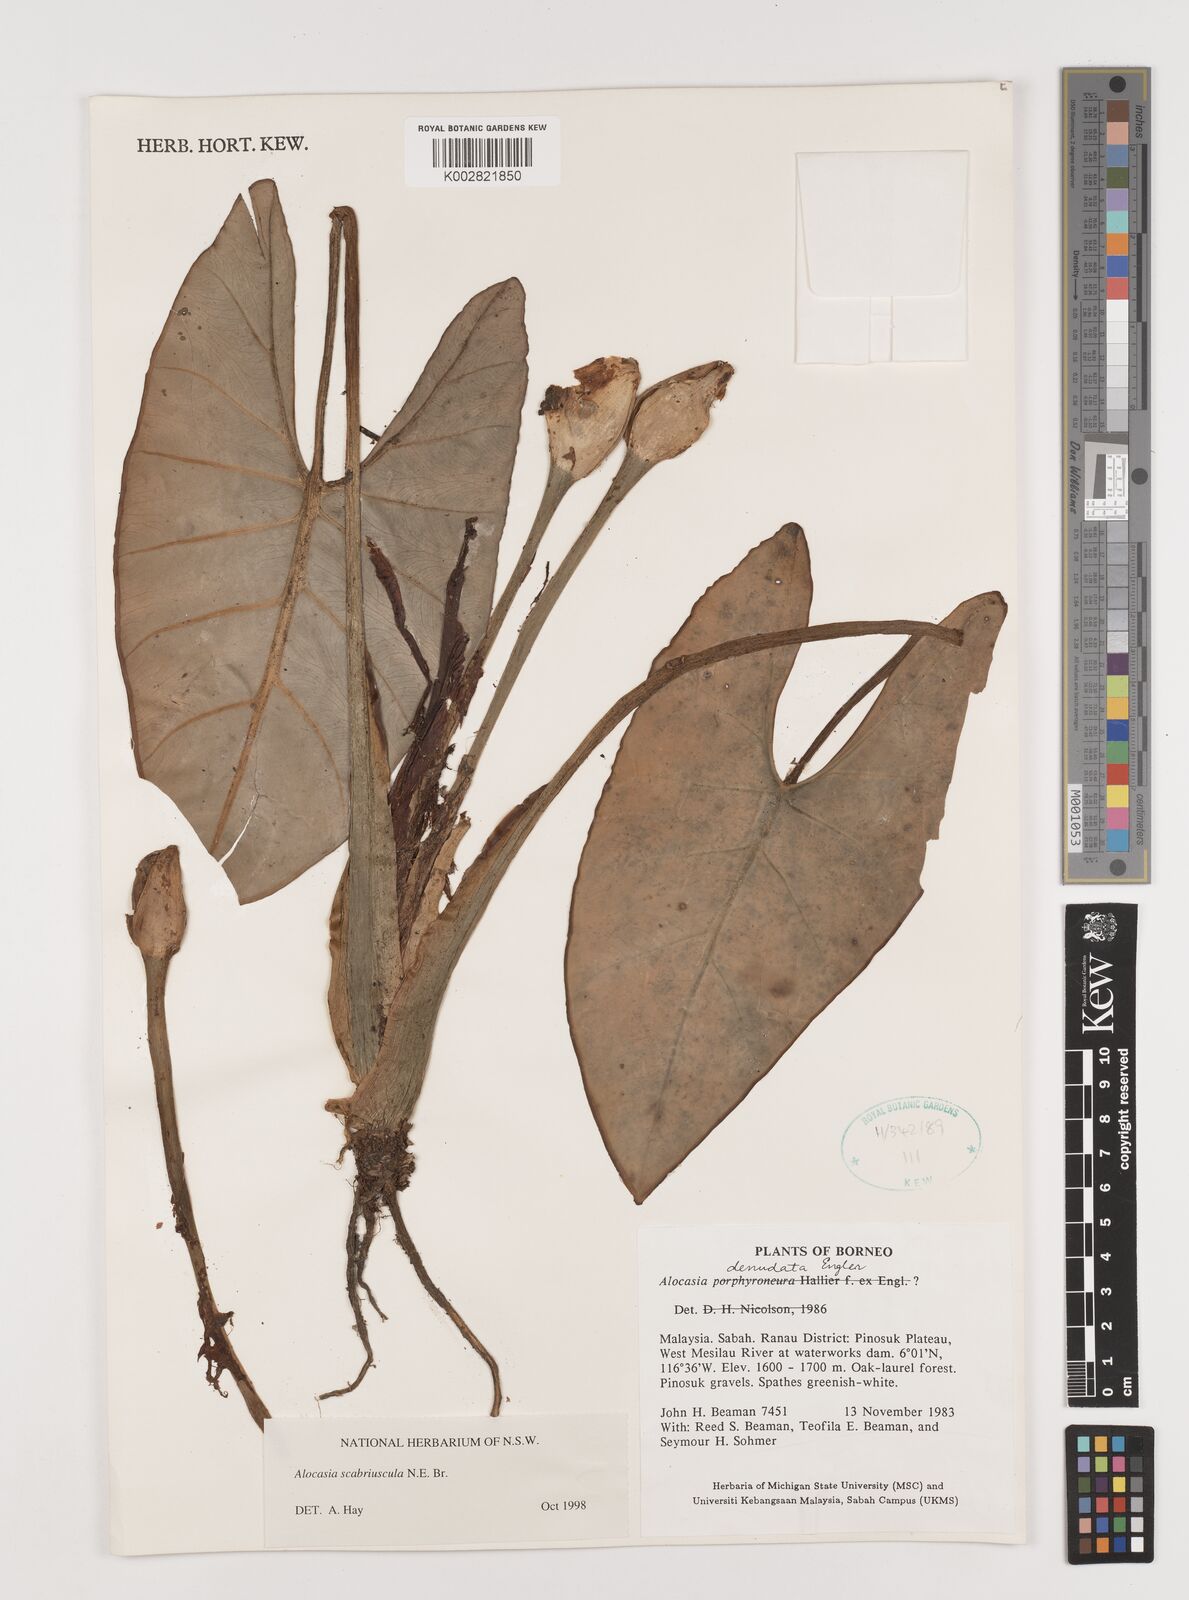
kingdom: Plantae
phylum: Tracheophyta
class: Liliopsida
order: Alismatales
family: Araceae
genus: Alocasia
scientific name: Alocasia scabriuscula
